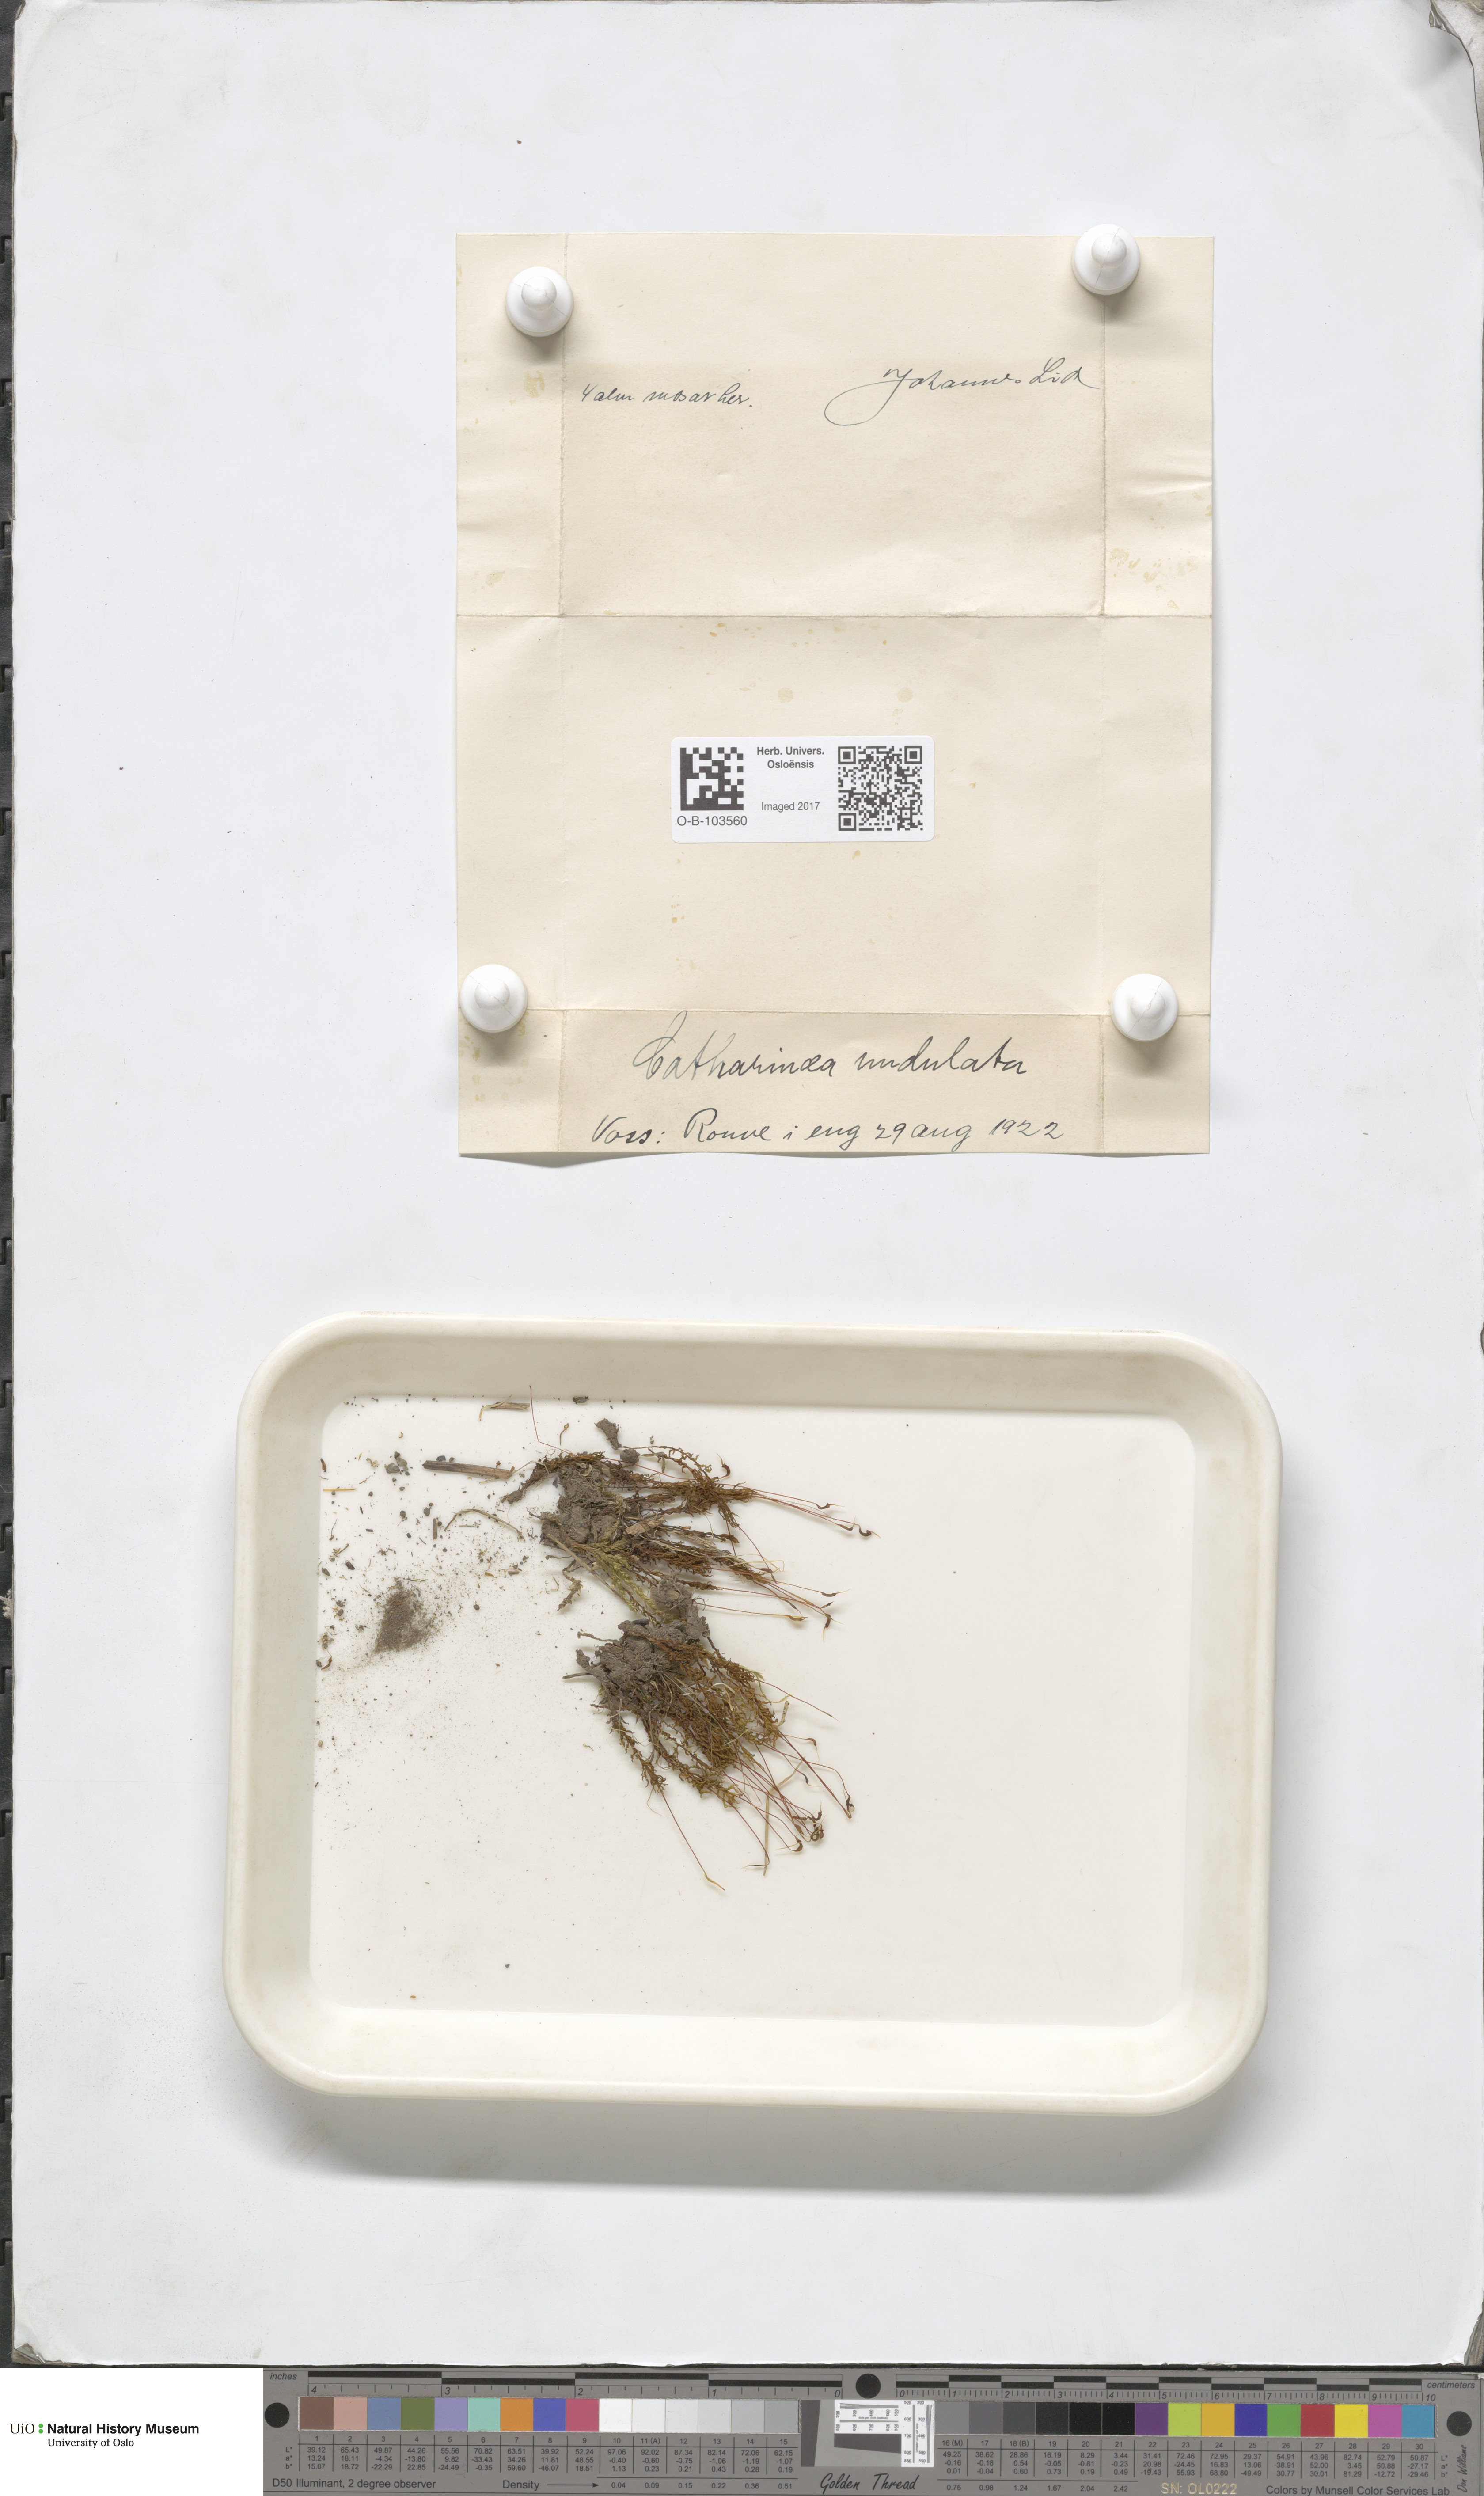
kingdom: Plantae
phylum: Bryophyta
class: Polytrichopsida
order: Polytrichales
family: Polytrichaceae
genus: Atrichum
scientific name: Atrichum undulatum
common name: Common smoothcap
